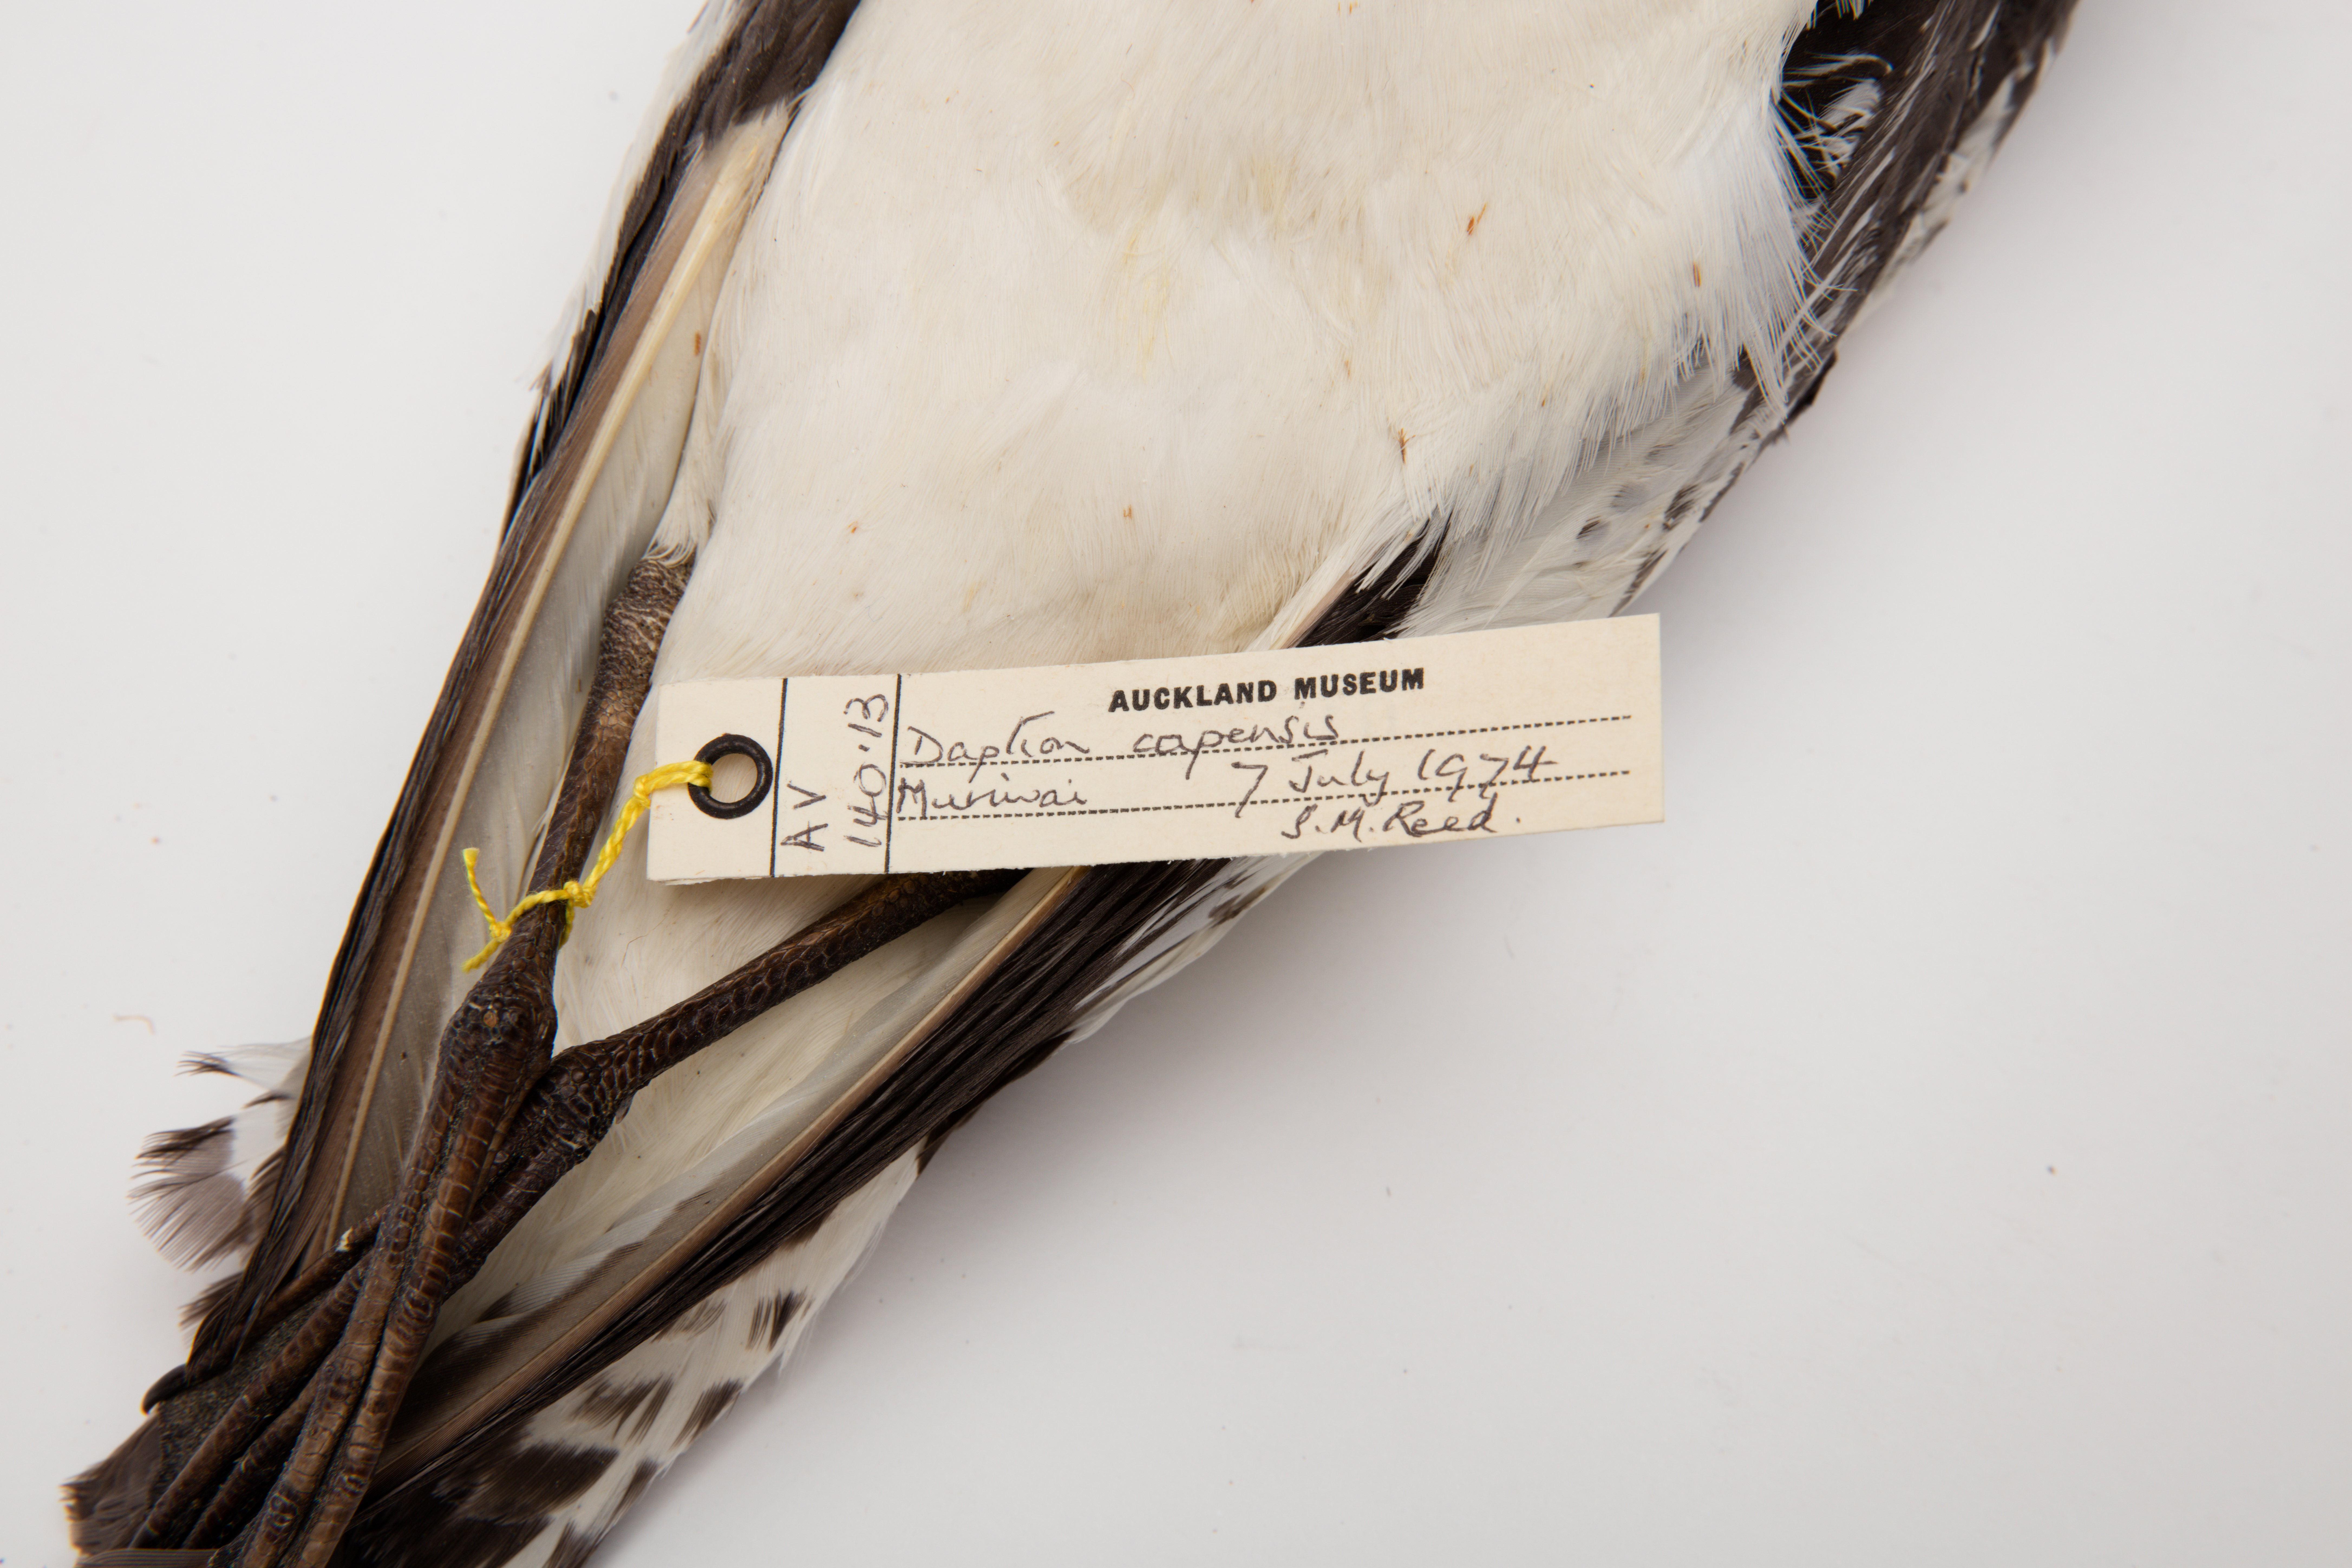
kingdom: Animalia
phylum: Chordata
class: Aves
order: Procellariiformes
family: Procellariidae
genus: Daption
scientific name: Daption capense
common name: Cape petrel
